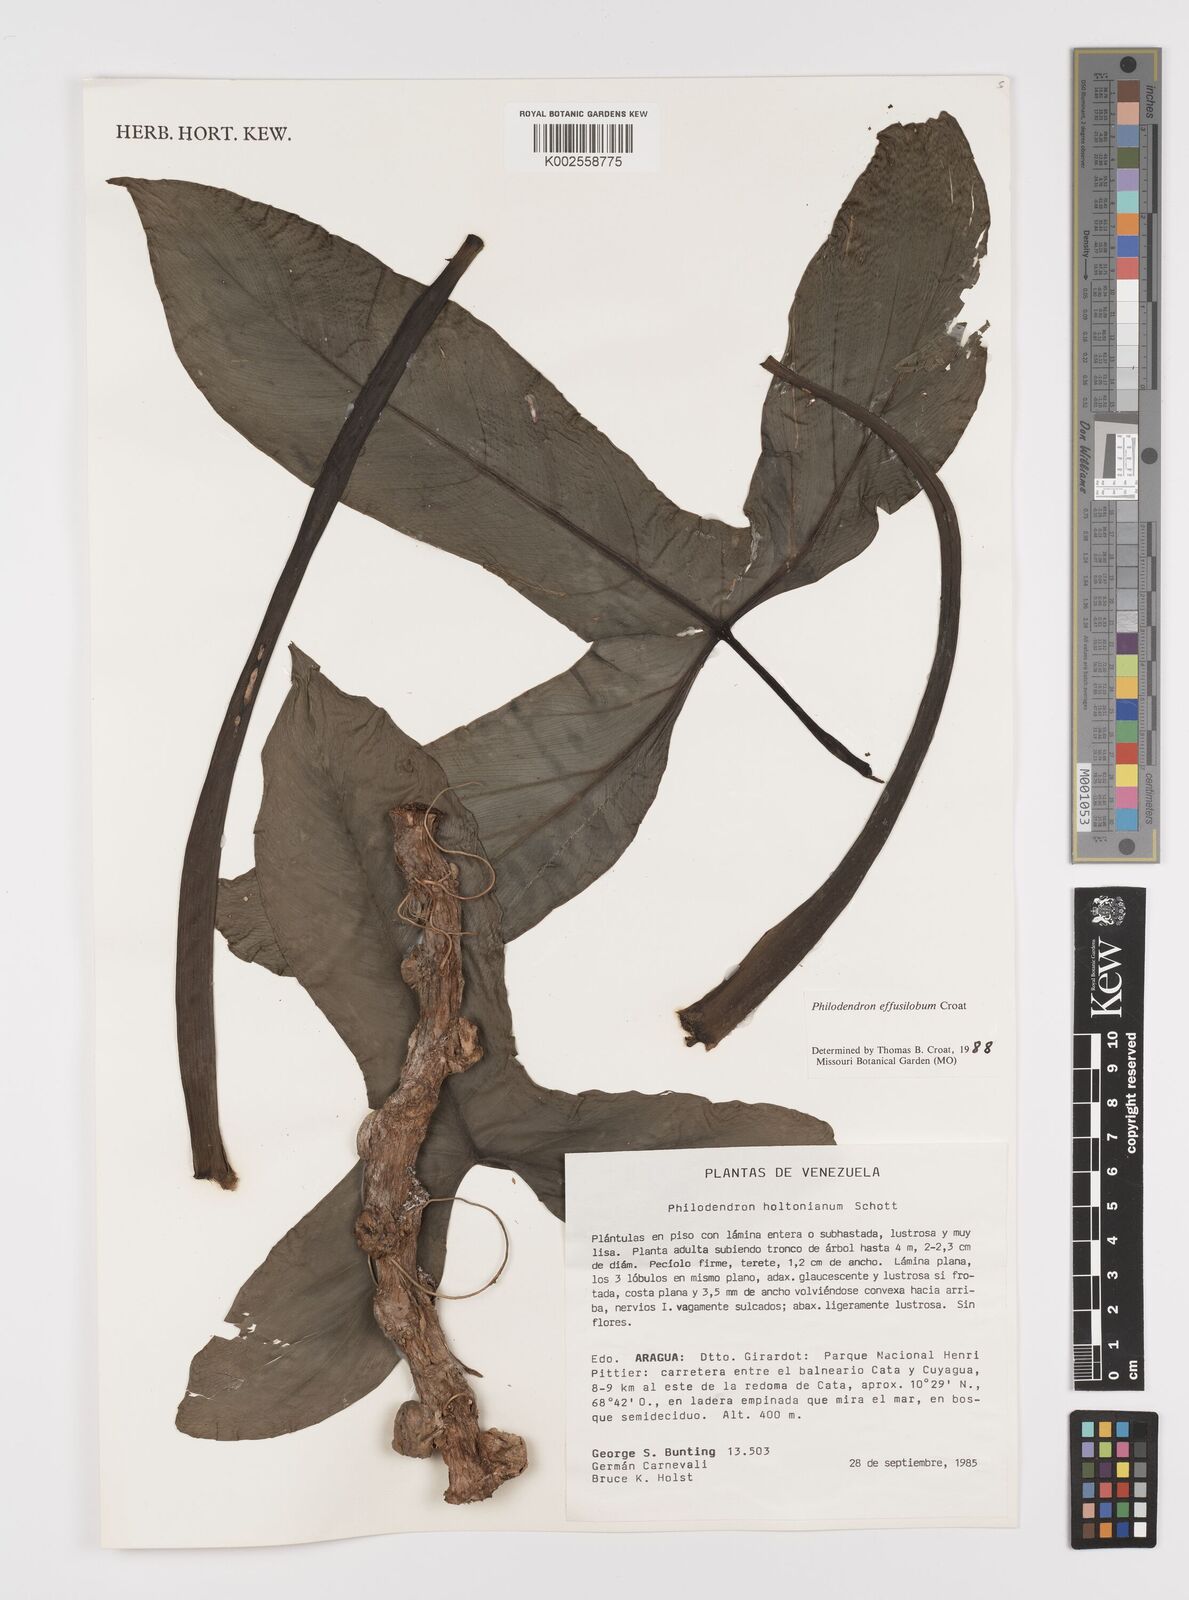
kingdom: Plantae
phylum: Tracheophyta
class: Liliopsida
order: Alismatales
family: Araceae
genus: Philodendron
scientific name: Philodendron effusilobum
